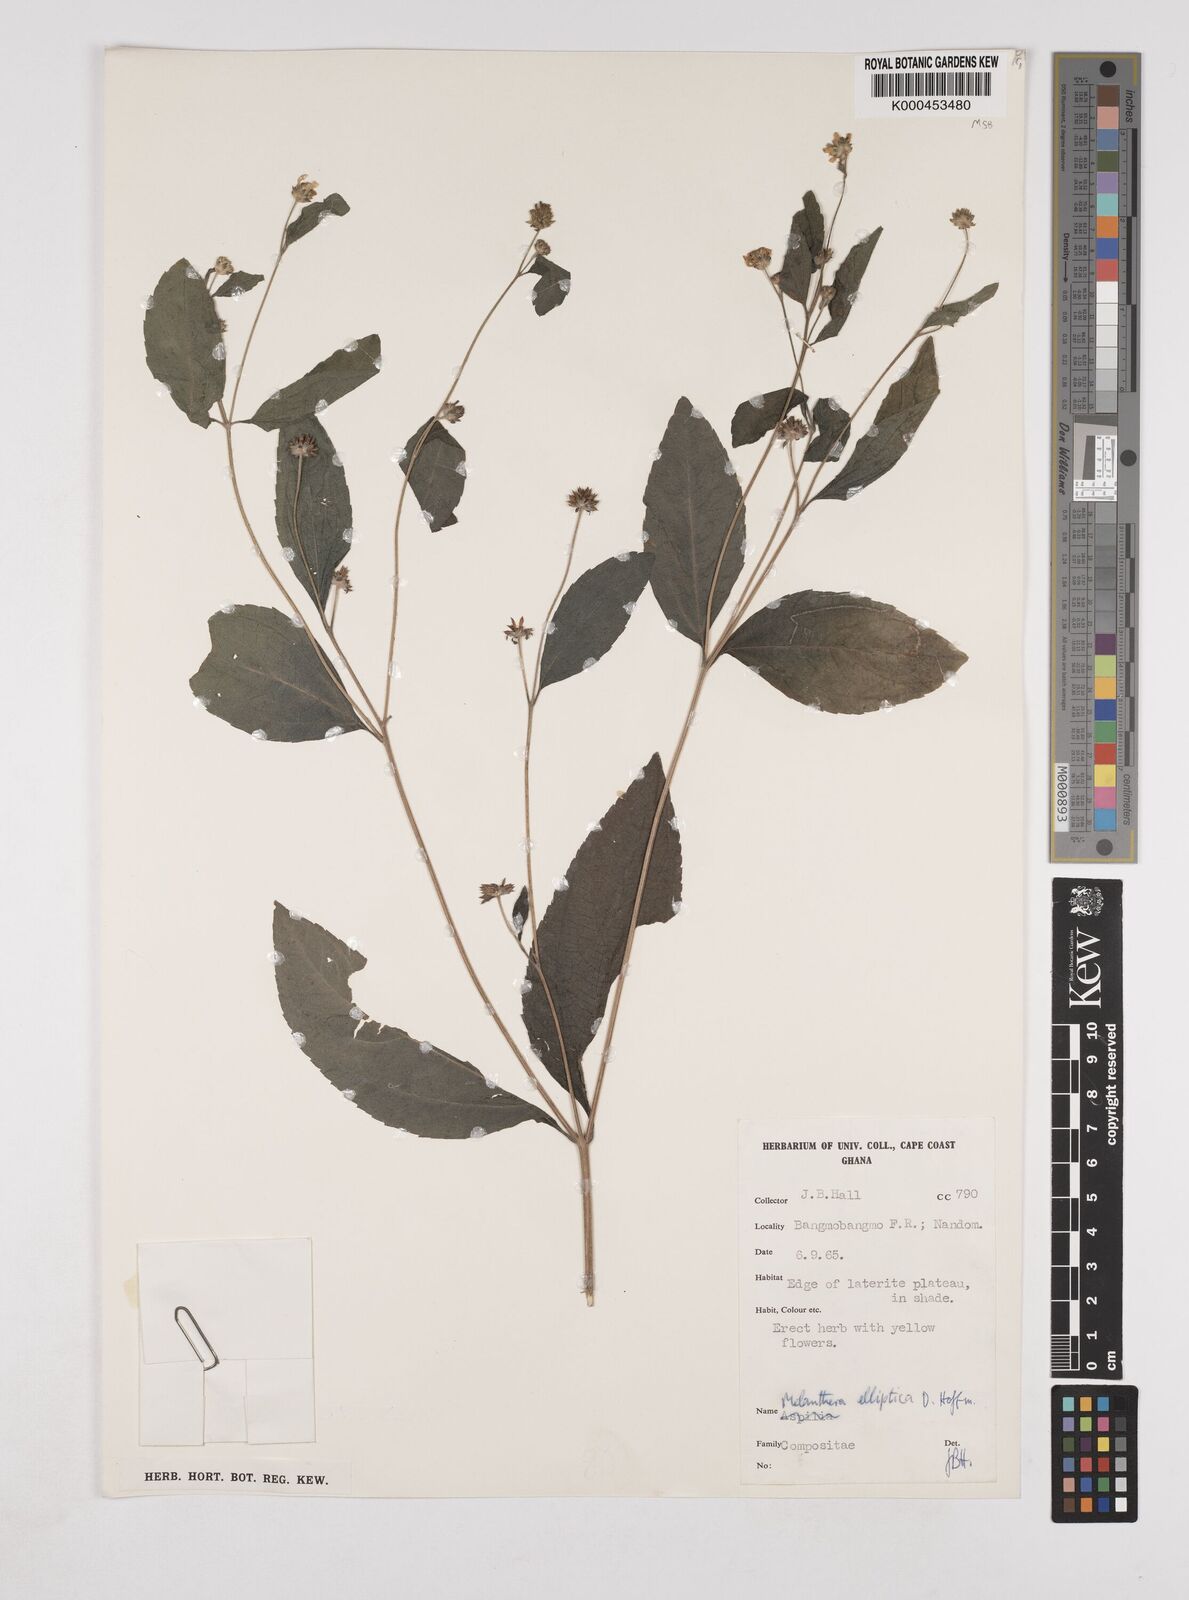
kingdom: Plantae
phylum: Tracheophyta
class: Magnoliopsida
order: Asterales
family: Asteraceae
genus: Lipotriche
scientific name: Lipotriche elliptica
